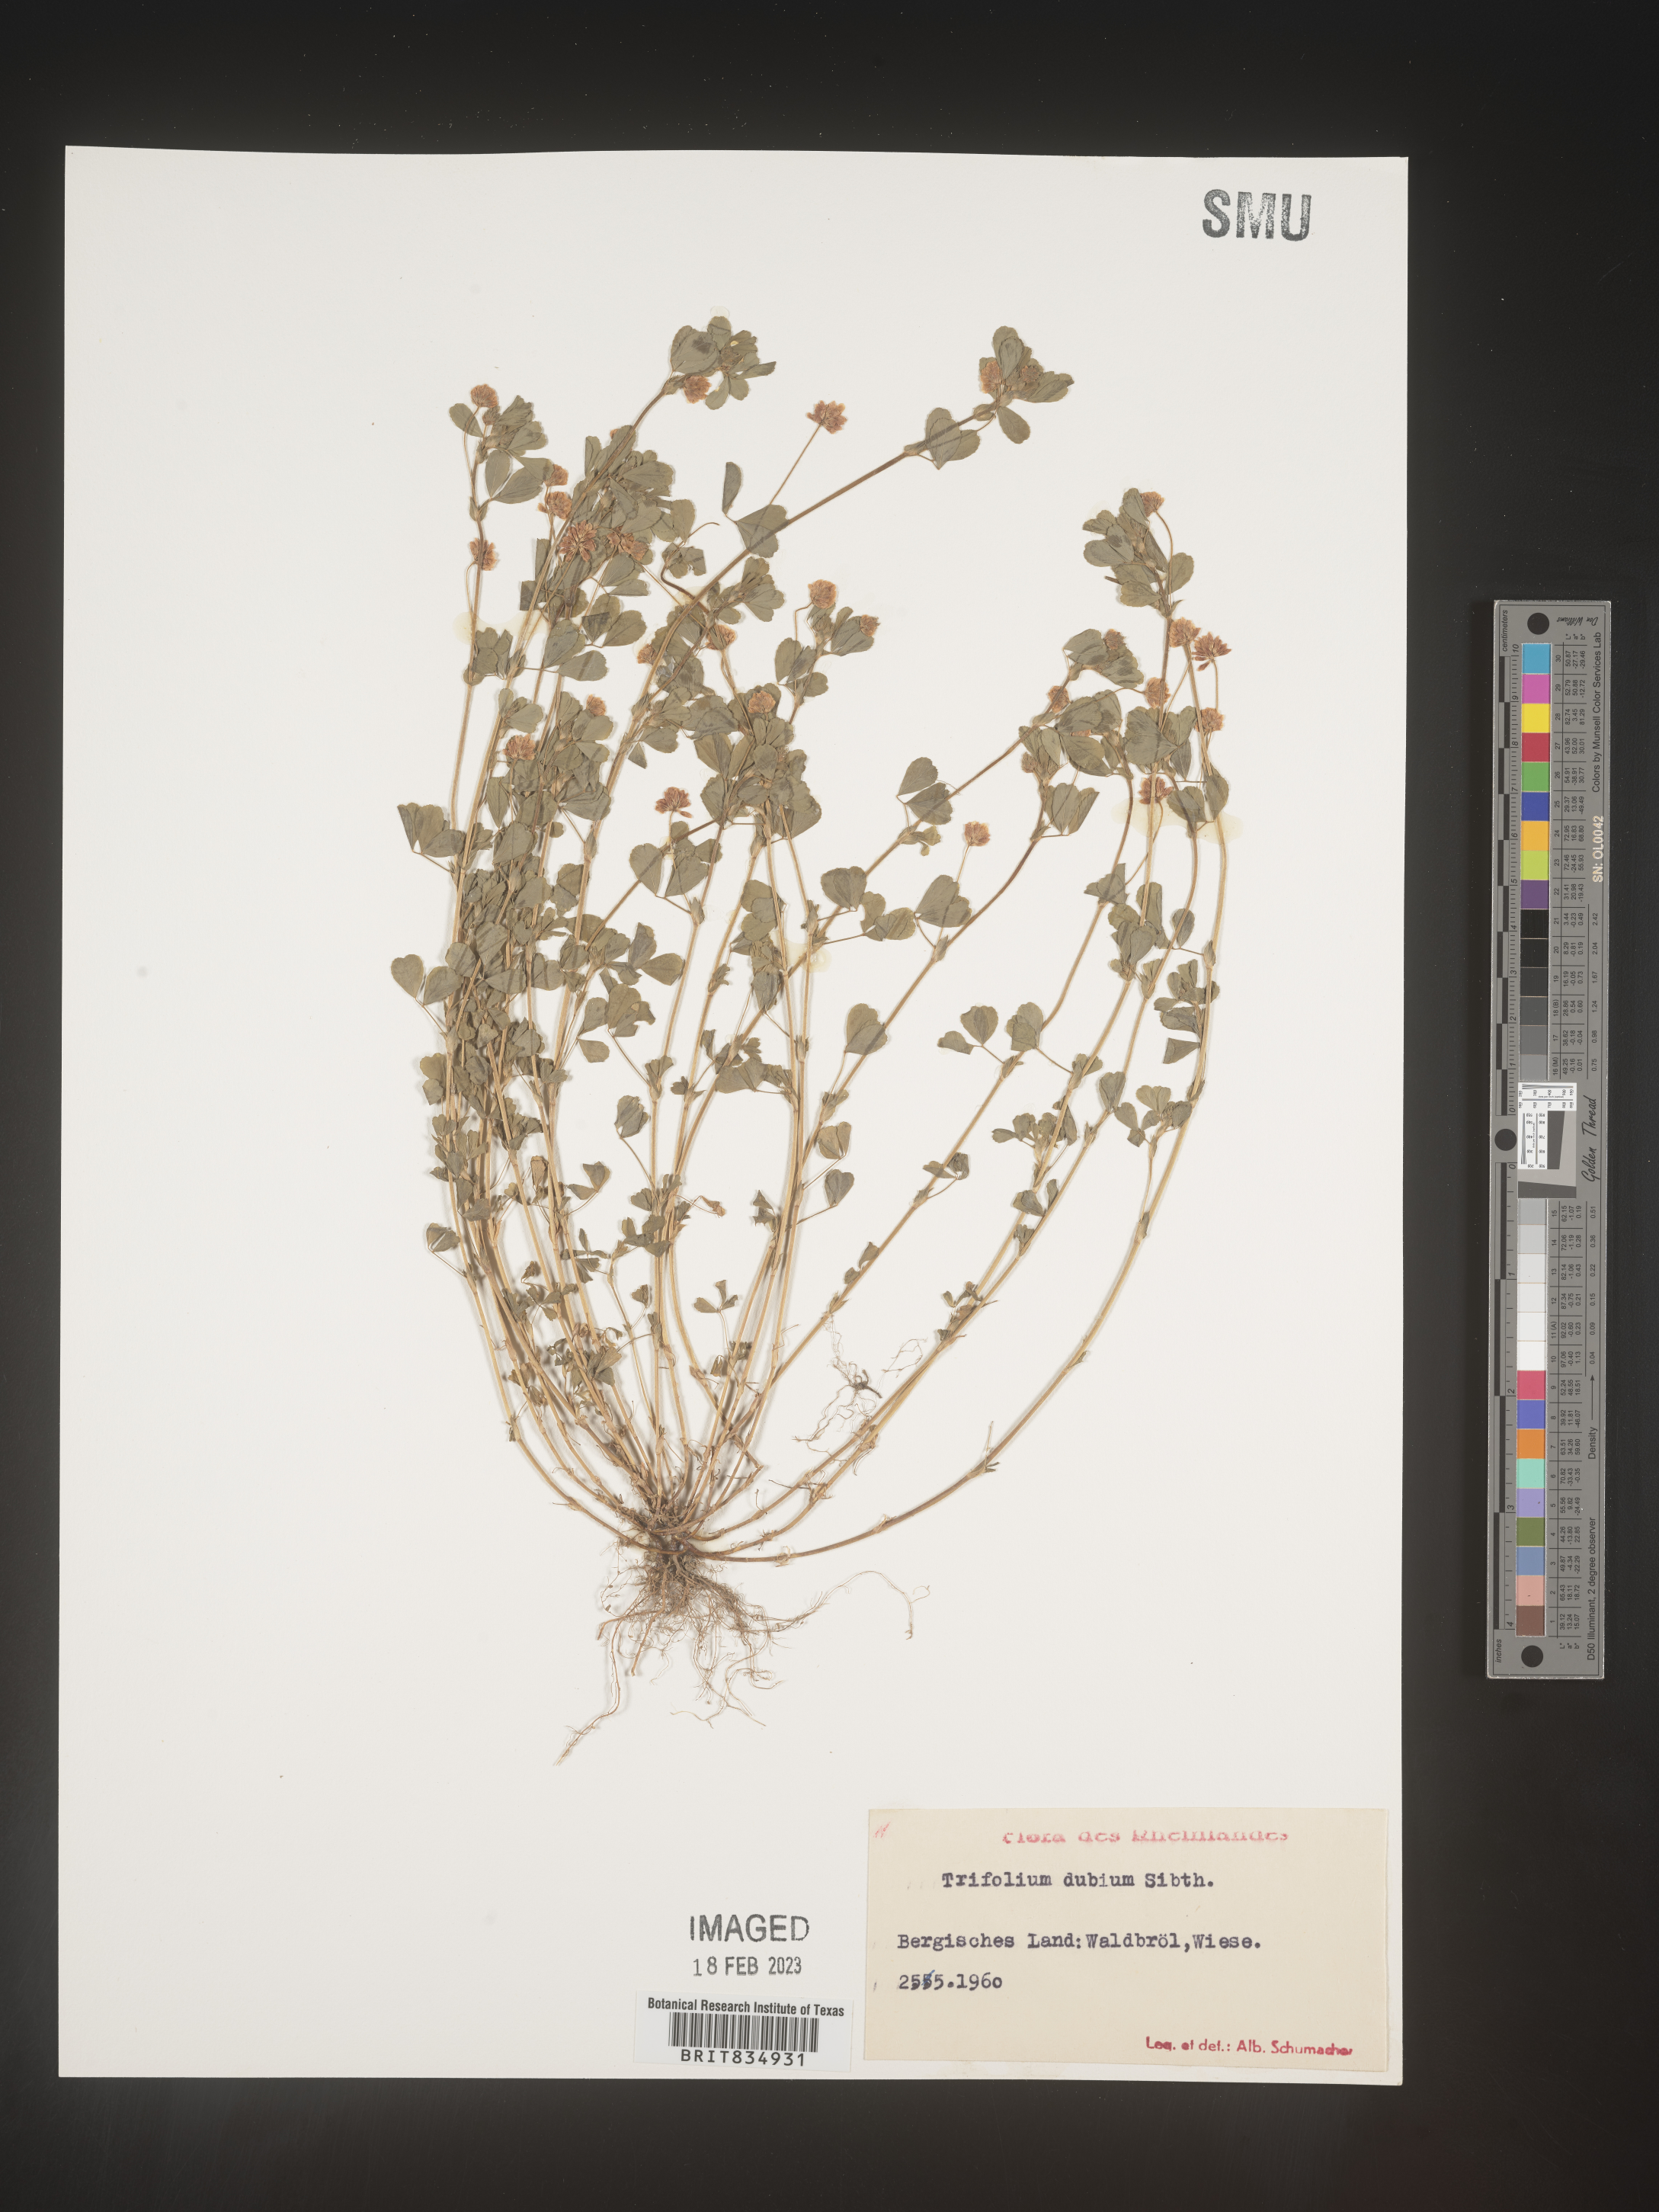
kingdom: Plantae
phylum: Tracheophyta
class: Magnoliopsida
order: Fabales
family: Fabaceae
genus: Trifolium
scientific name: Trifolium
